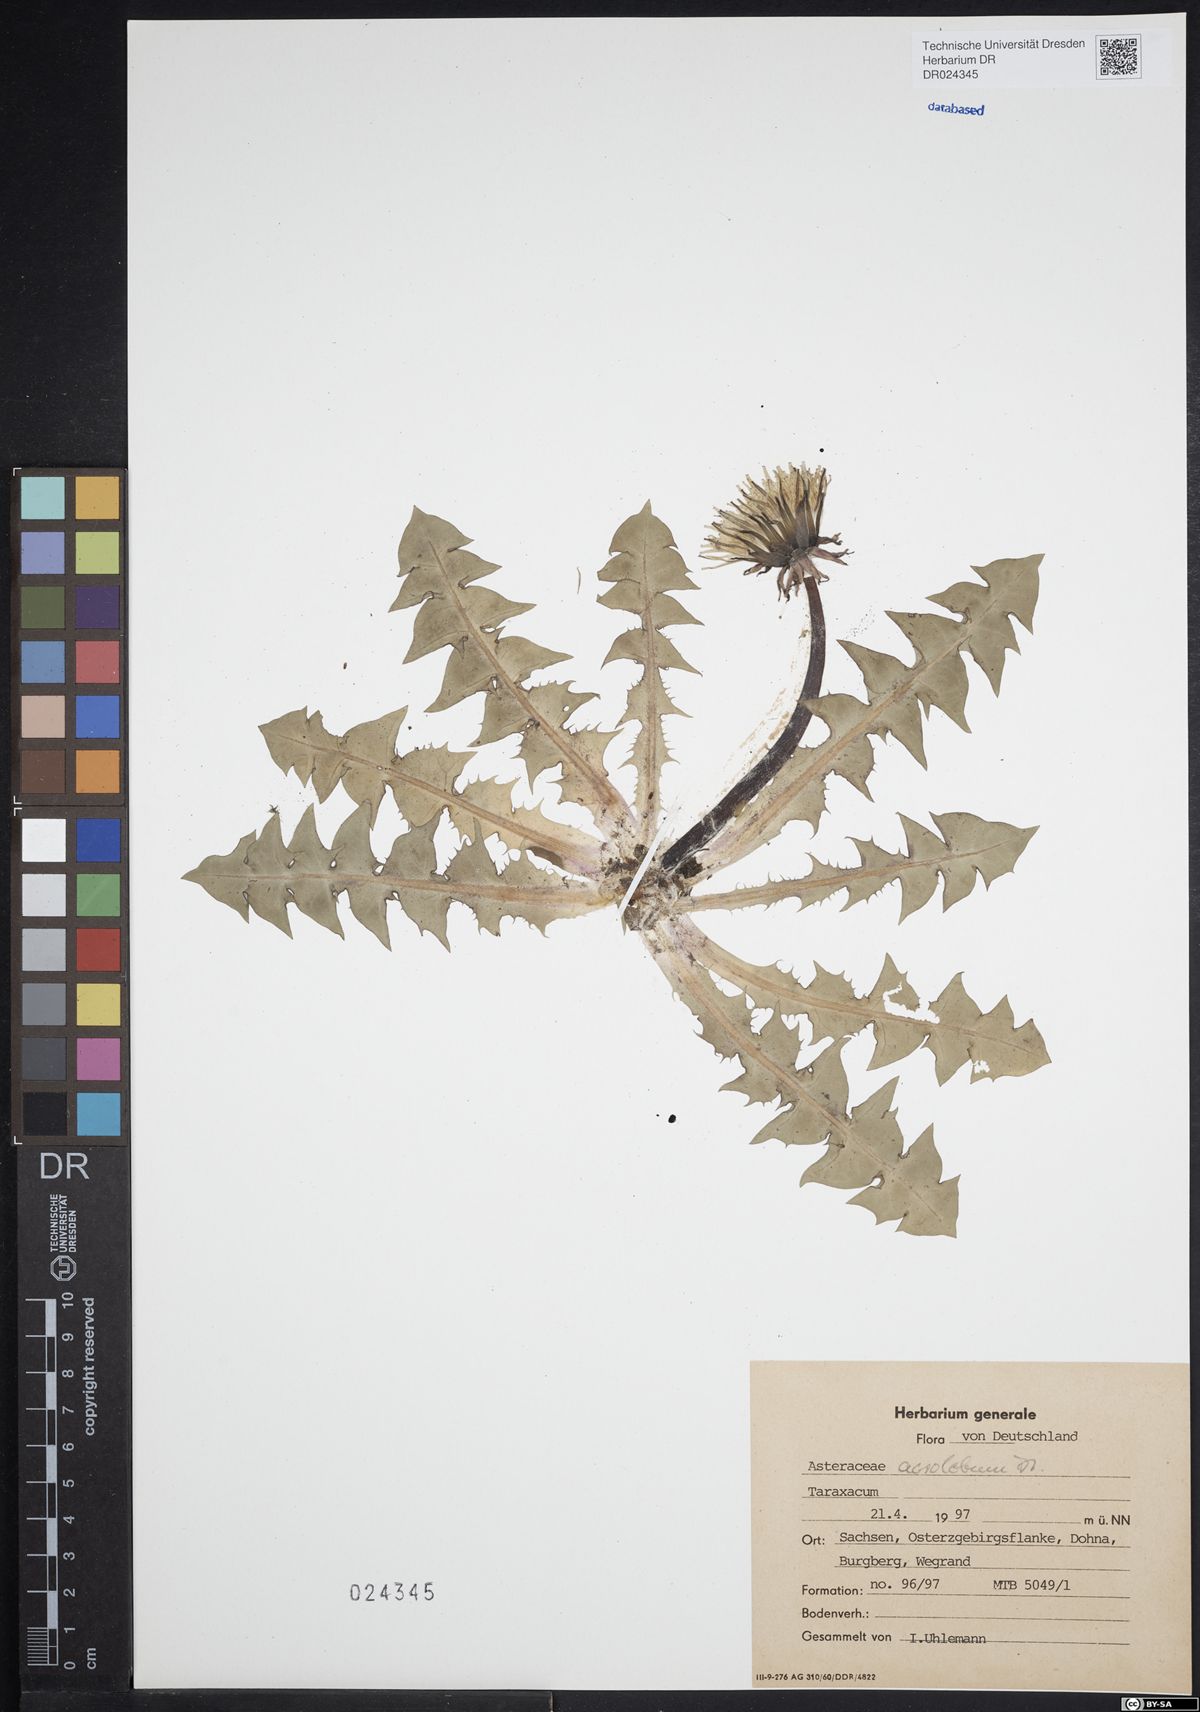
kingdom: Plantae
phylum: Tracheophyta
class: Magnoliopsida
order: Asterales
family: Asteraceae
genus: Taraxacum
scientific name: Taraxacum acrolobum
